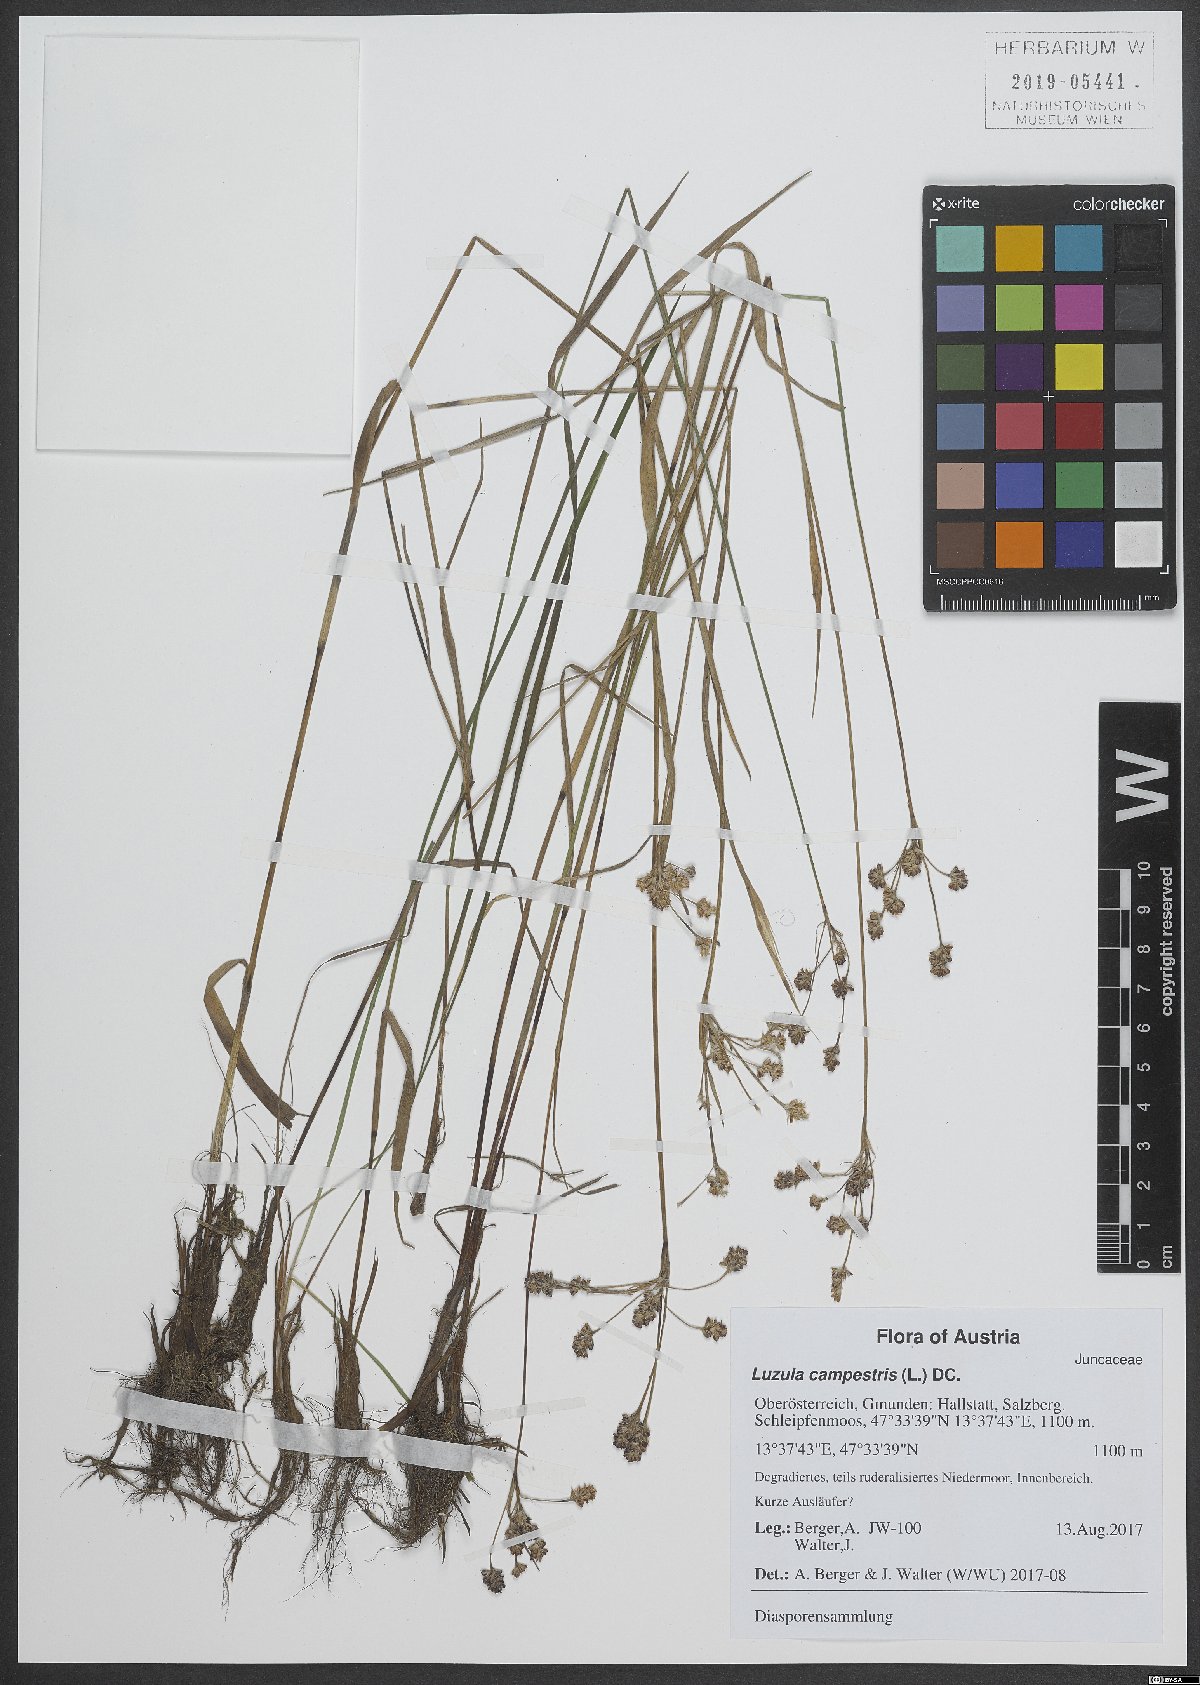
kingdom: Plantae
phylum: Tracheophyta
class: Liliopsida
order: Poales
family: Juncaceae
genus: Luzula
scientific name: Luzula campestris
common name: Field wood-rush
